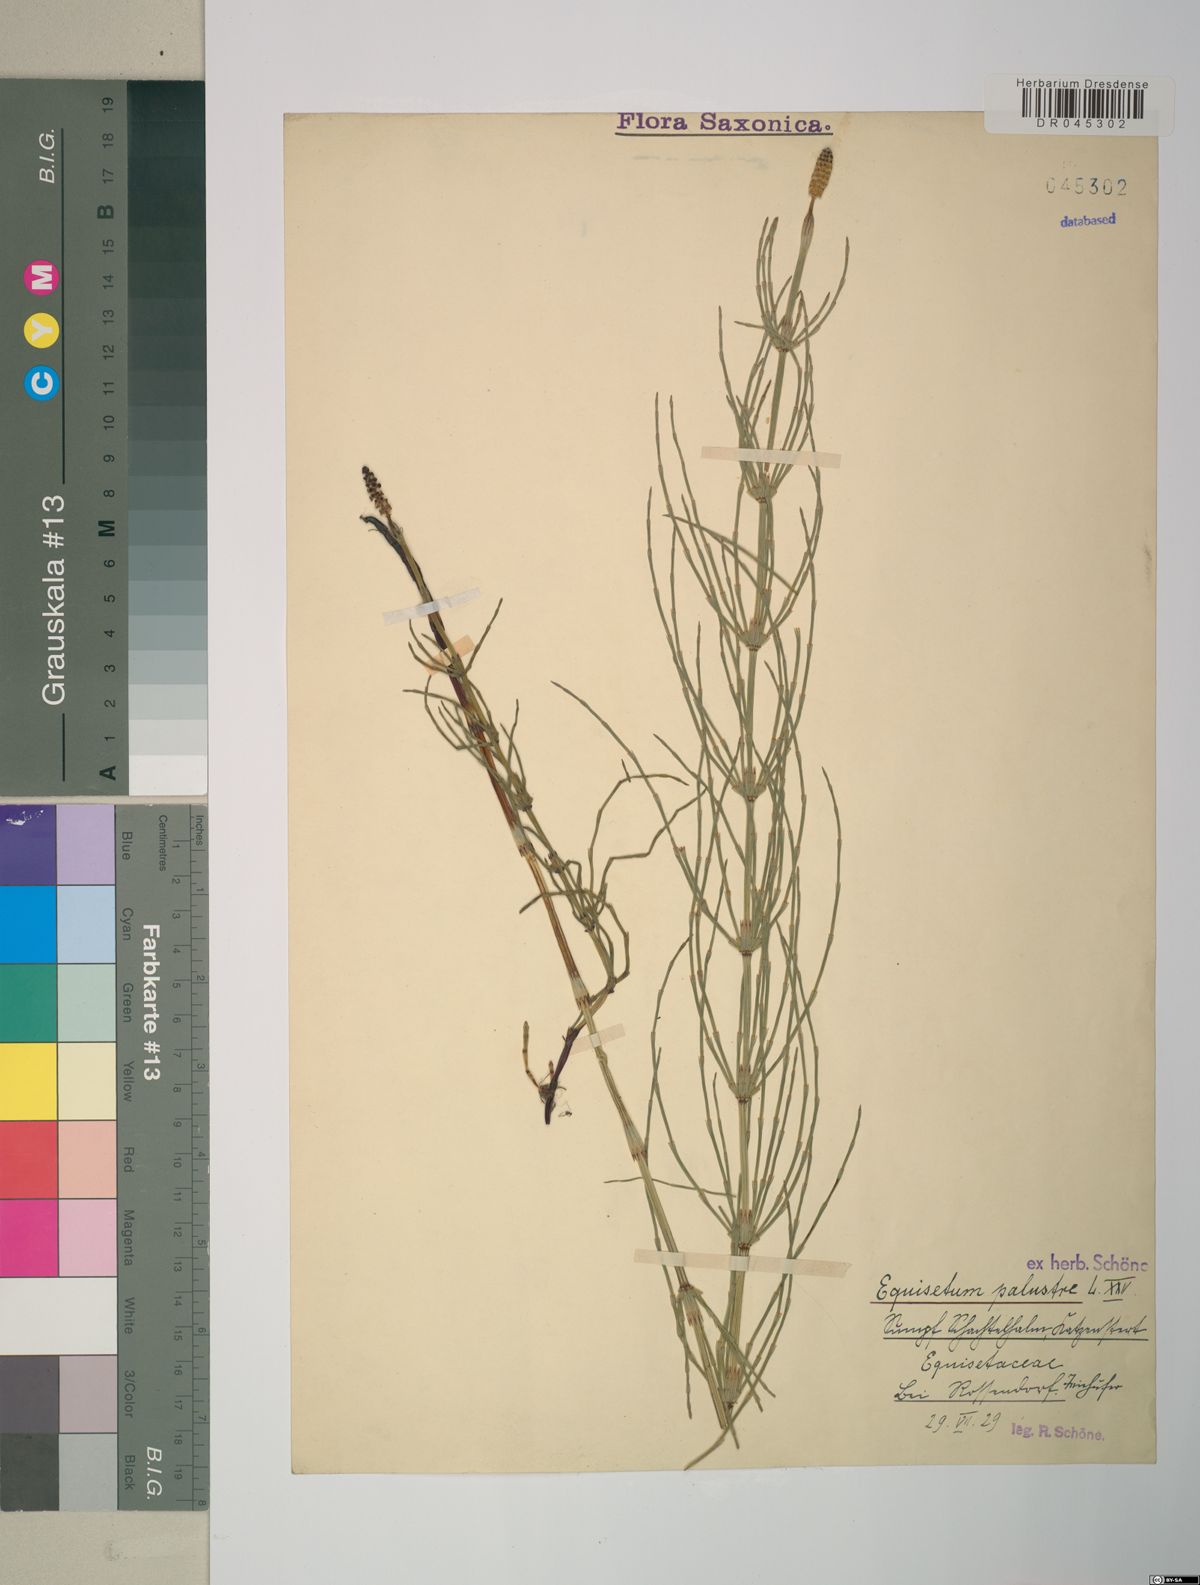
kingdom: Plantae
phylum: Tracheophyta
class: Polypodiopsida
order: Equisetales
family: Equisetaceae
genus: Equisetum
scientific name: Equisetum palustre
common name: Marsh horsetail
